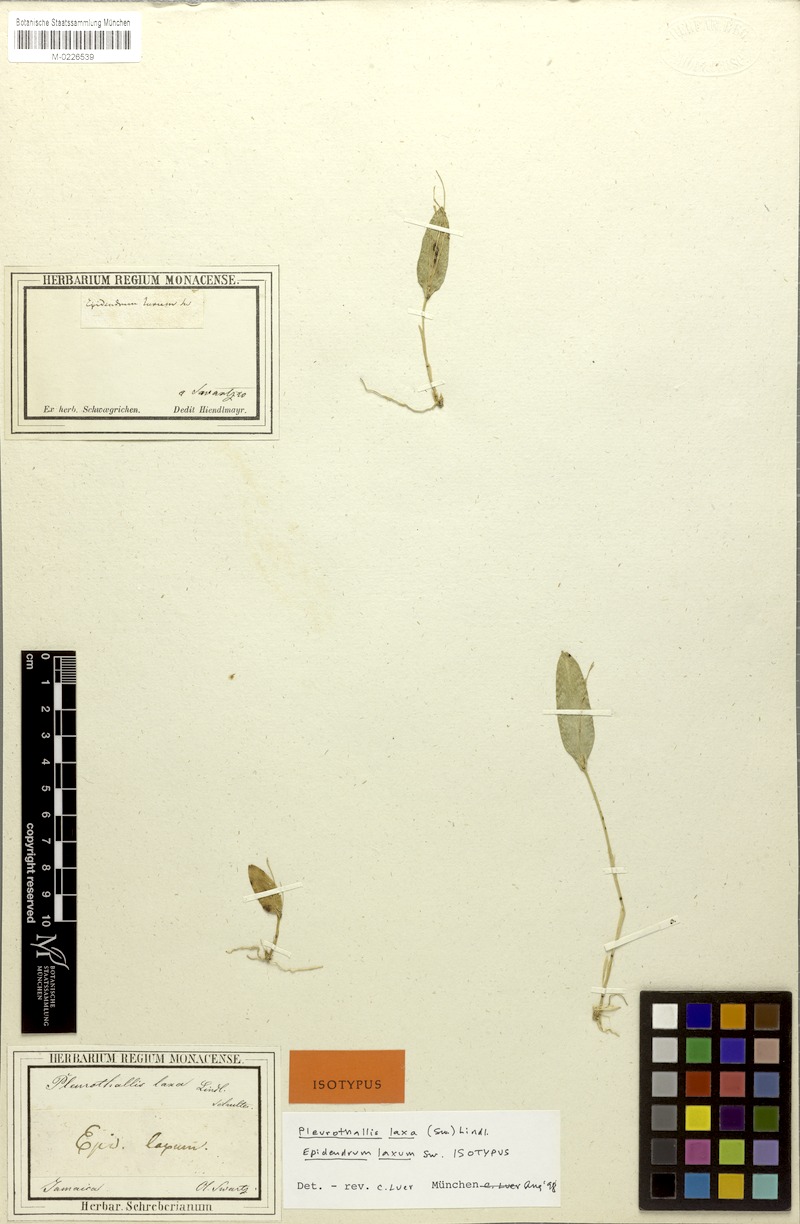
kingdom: Plantae
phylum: Tracheophyta
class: Liliopsida
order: Asparagales
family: Orchidaceae
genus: Acianthera
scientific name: Acianthera laxa
